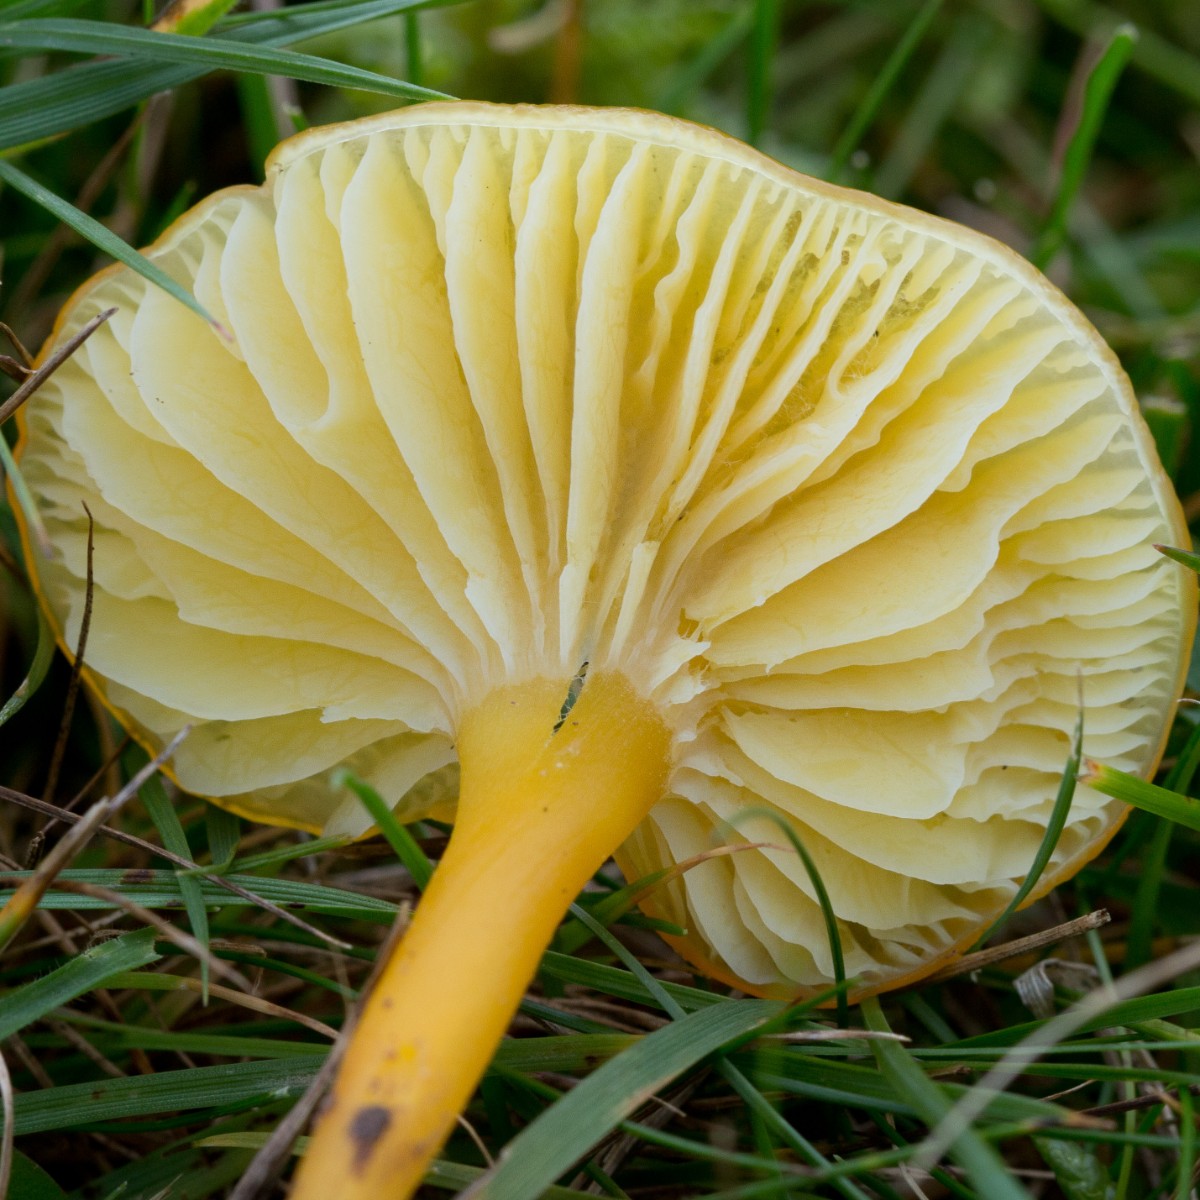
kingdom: Fungi
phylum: Basidiomycota
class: Agaricomycetes
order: Agaricales
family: Hygrophoraceae
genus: Hygrocybe
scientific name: Hygrocybe chlorophana
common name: gul vokshat
